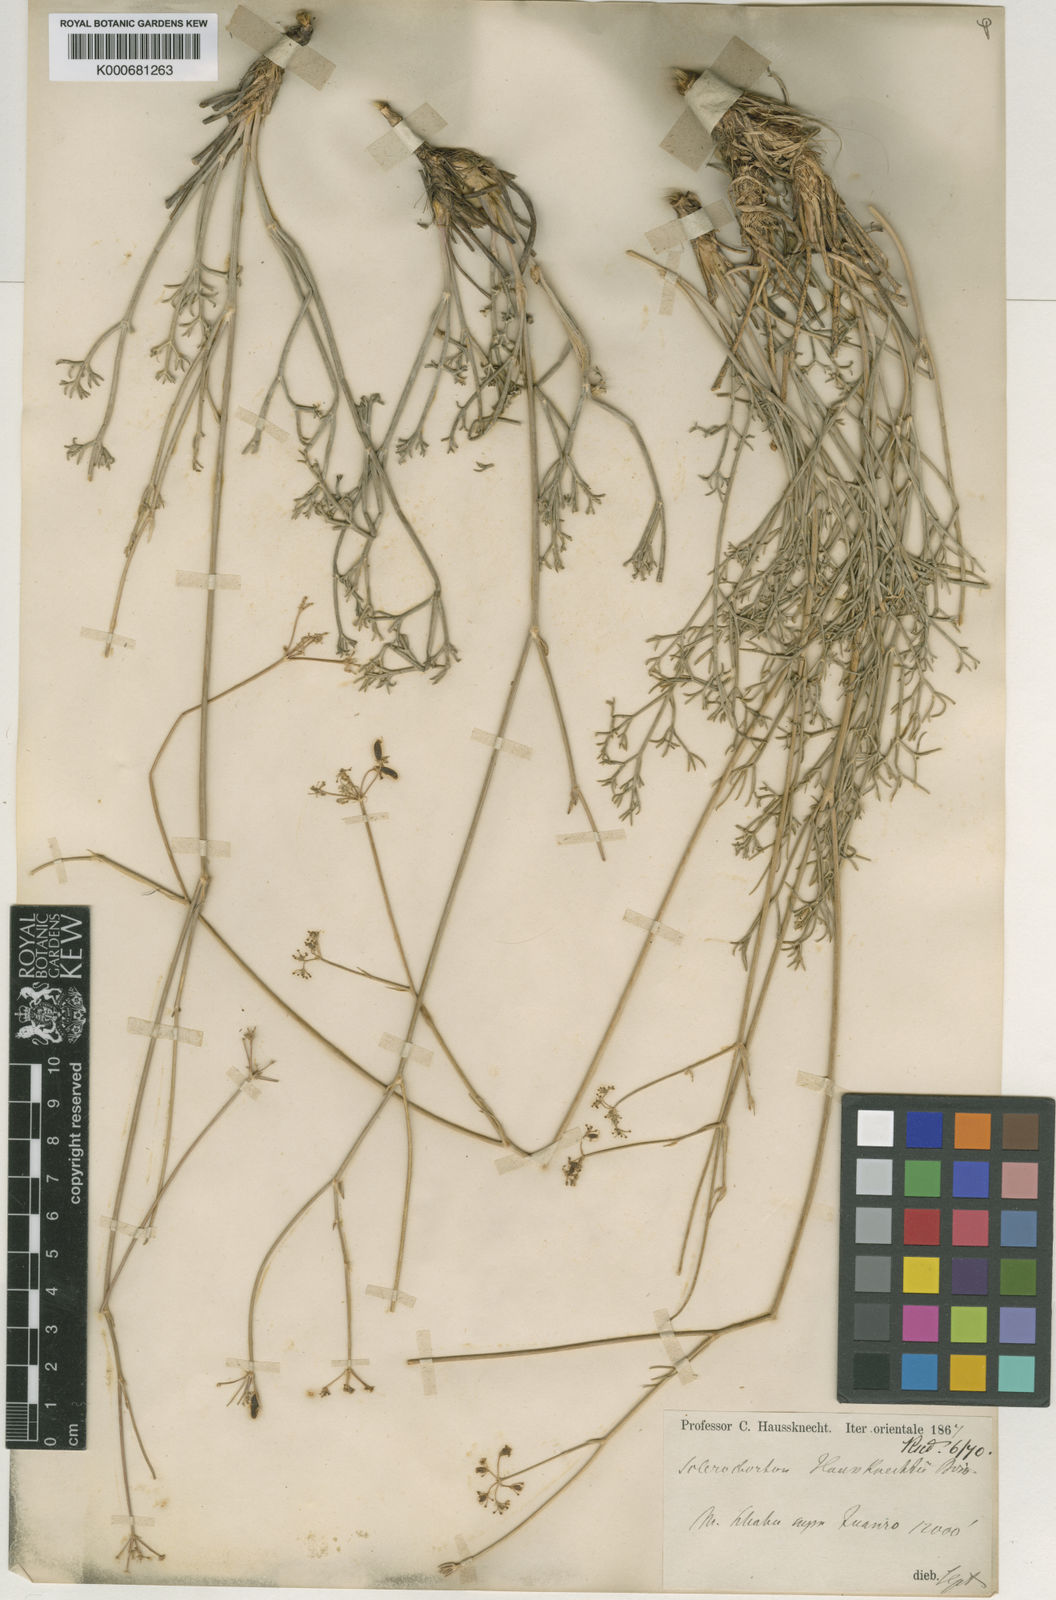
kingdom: Plantae
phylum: Tracheophyta
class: Magnoliopsida
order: Apiales
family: Apiaceae
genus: Sclerochorton
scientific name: Sclerochorton haussknechtii
